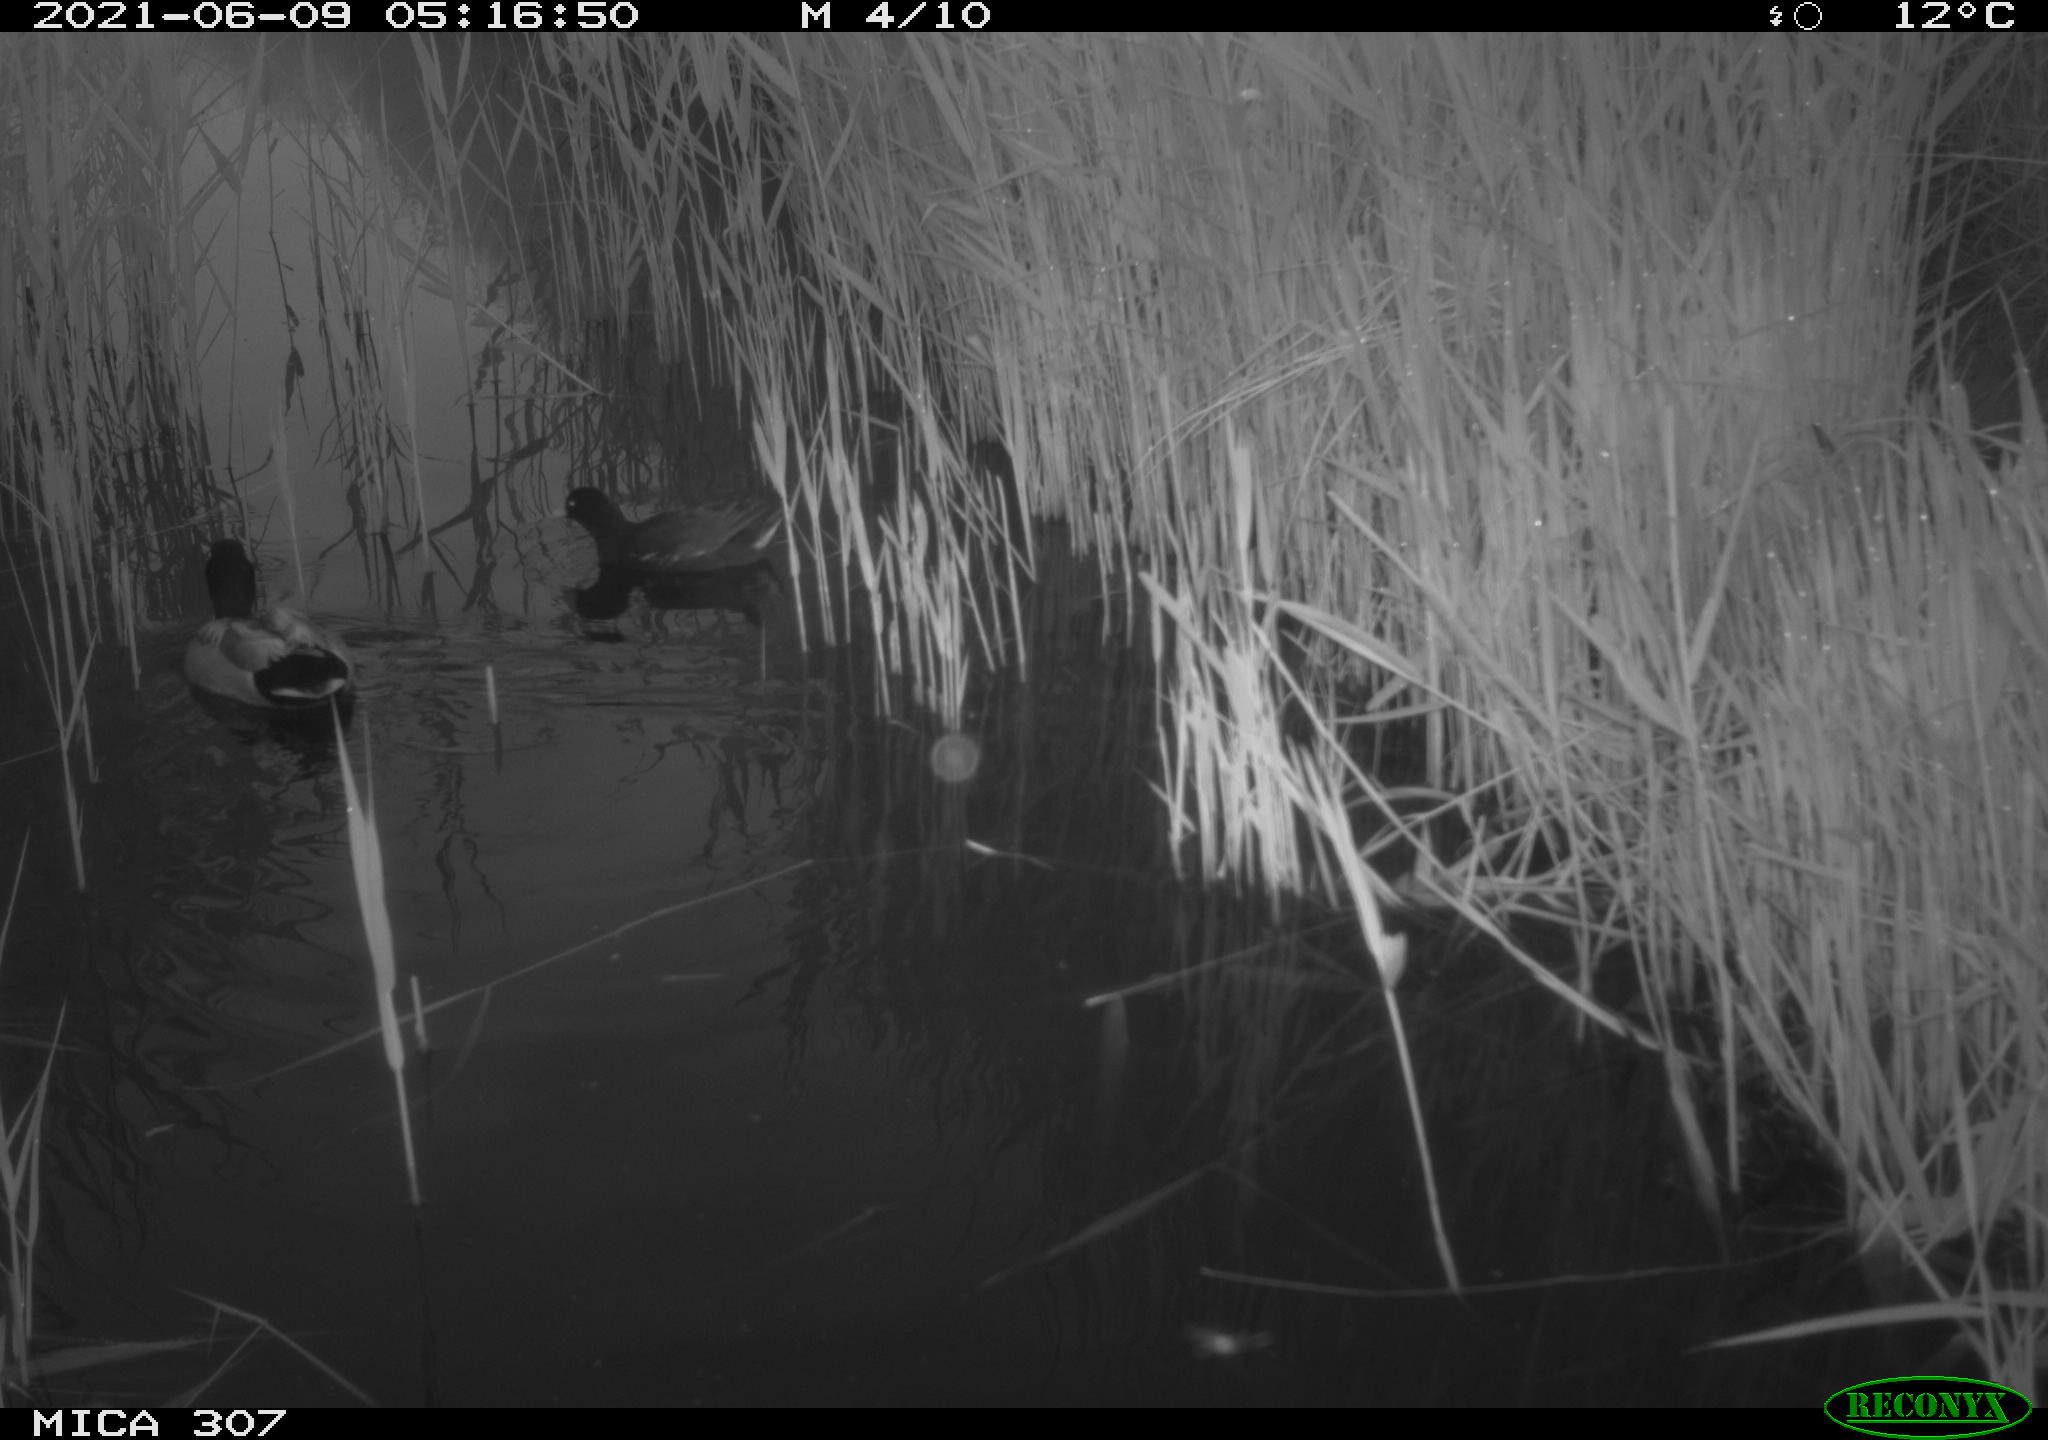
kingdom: Animalia
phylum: Chordata
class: Aves
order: Anseriformes
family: Anatidae
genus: Anas
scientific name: Anas platyrhynchos
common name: Mallard
